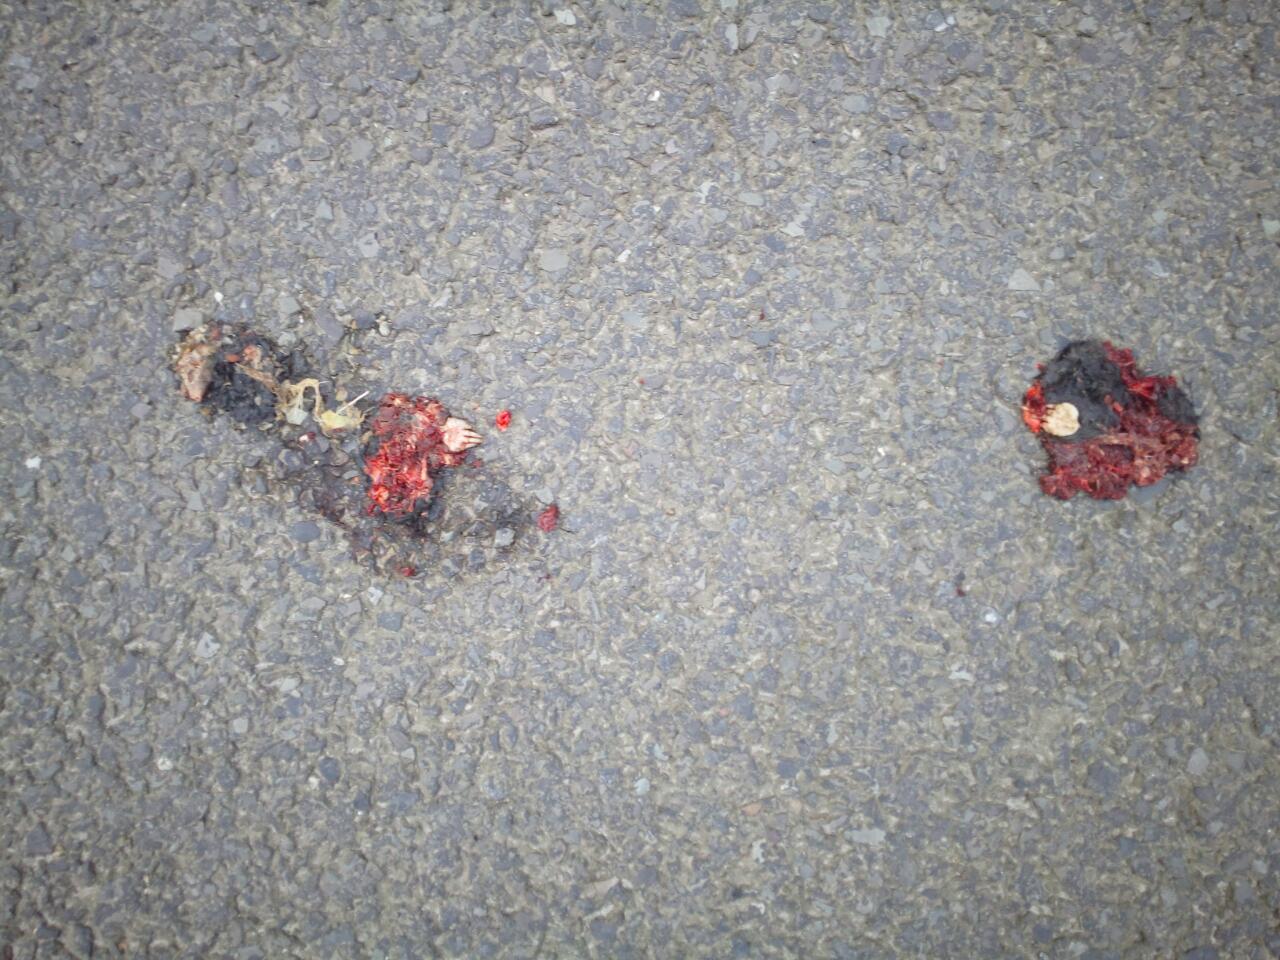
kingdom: Animalia
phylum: Chordata
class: Mammalia
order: Soricomorpha
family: Talpidae
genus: Talpa
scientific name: Talpa europaea
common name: European mole
